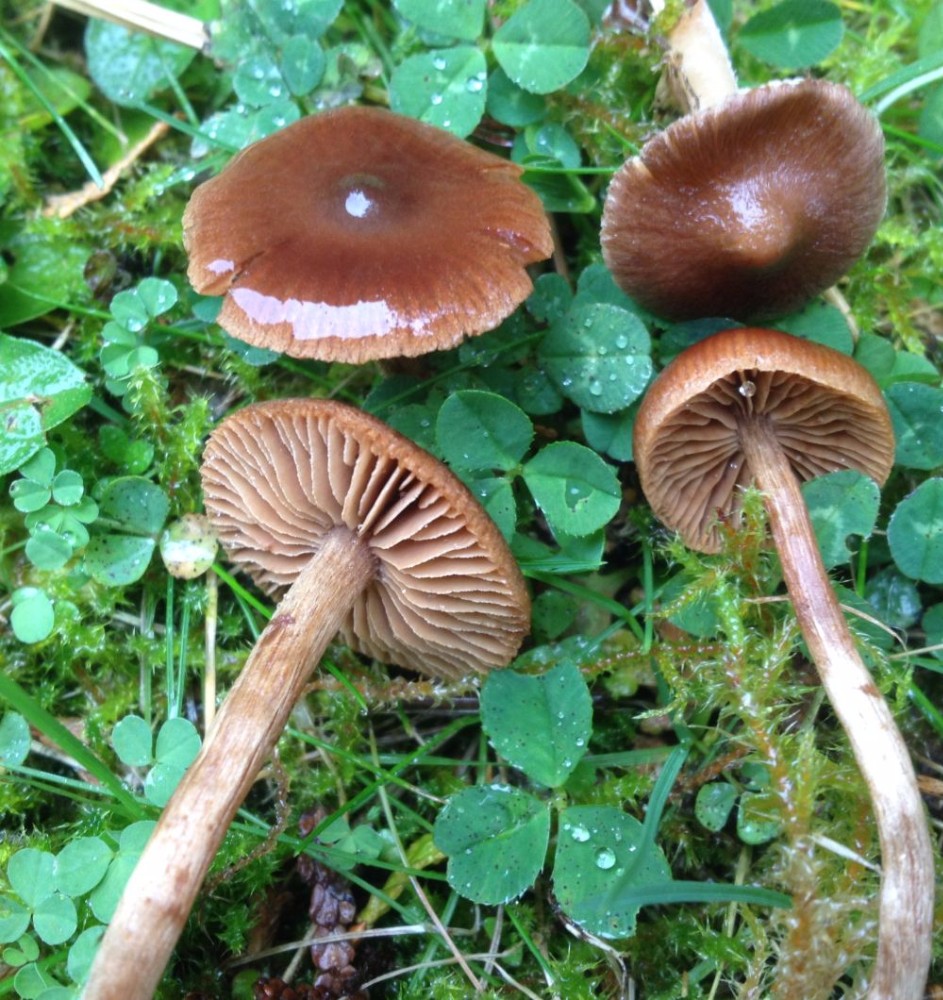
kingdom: Fungi
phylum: Basidiomycota
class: Agaricomycetes
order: Agaricales
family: Hymenogastraceae
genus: Naucoria
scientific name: Naucoria
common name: knaphat
